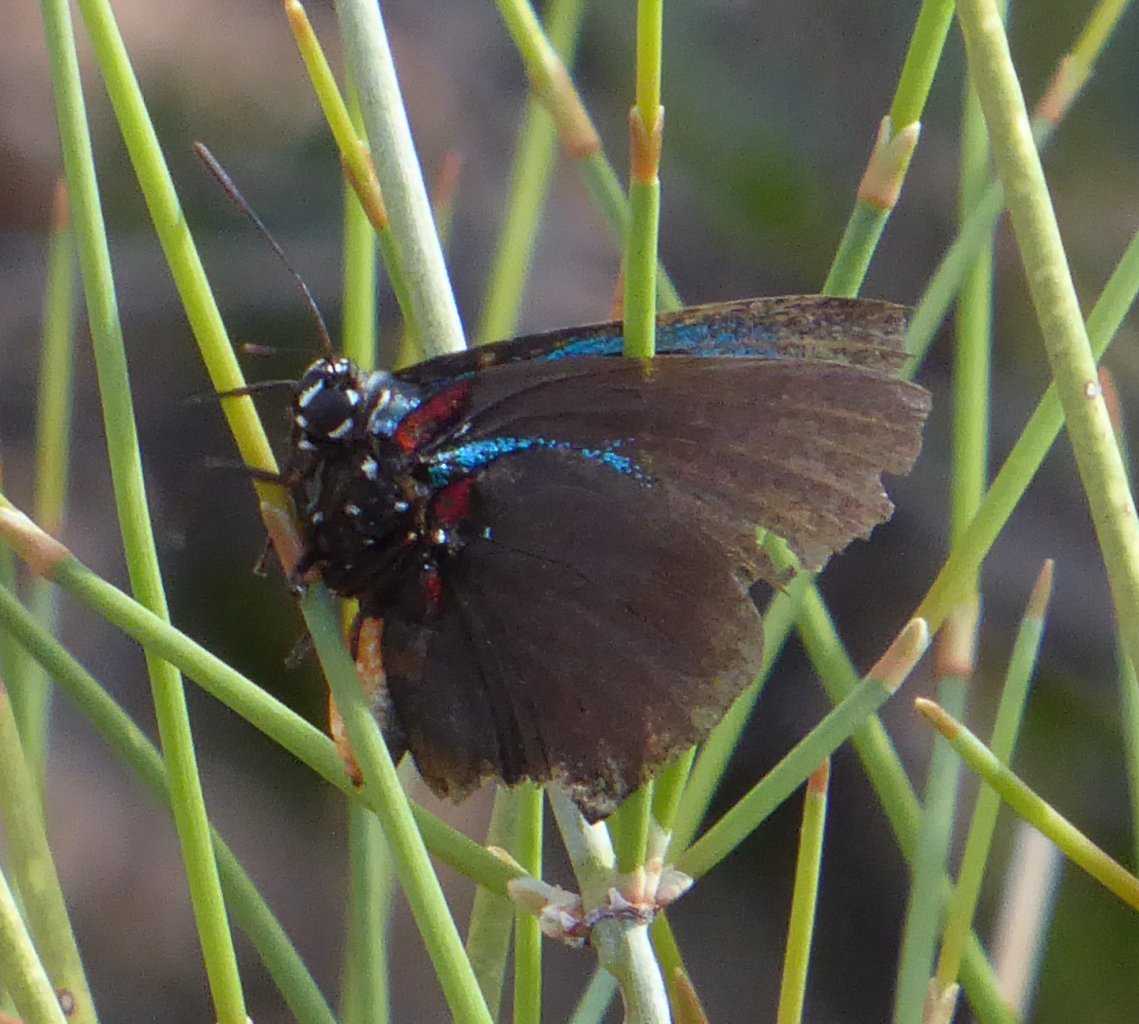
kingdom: Animalia
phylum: Arthropoda
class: Insecta
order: Lepidoptera
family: Lycaenidae
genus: Atlides
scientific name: Atlides halesus
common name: Great Purple Hairstreak
